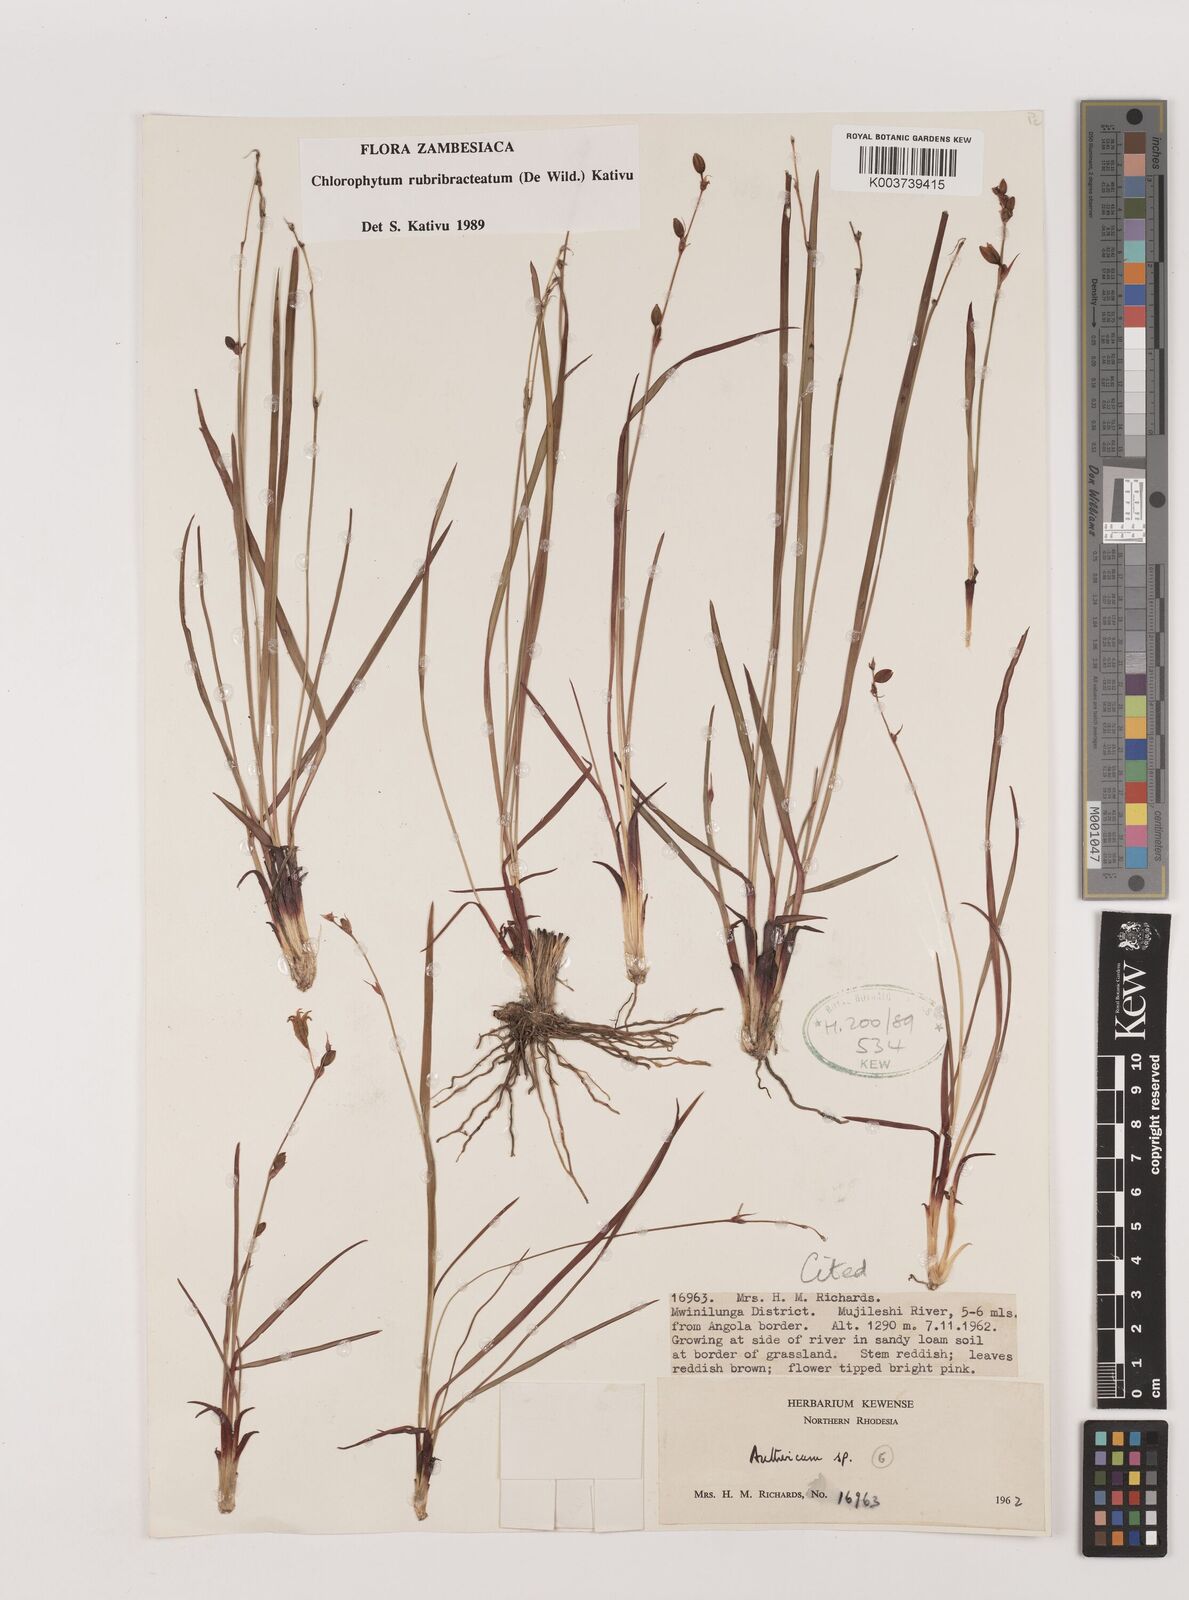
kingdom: Plantae
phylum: Tracheophyta
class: Liliopsida
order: Asparagales
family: Asparagaceae
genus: Chlorophytum
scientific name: Chlorophytum rubribracteatum
